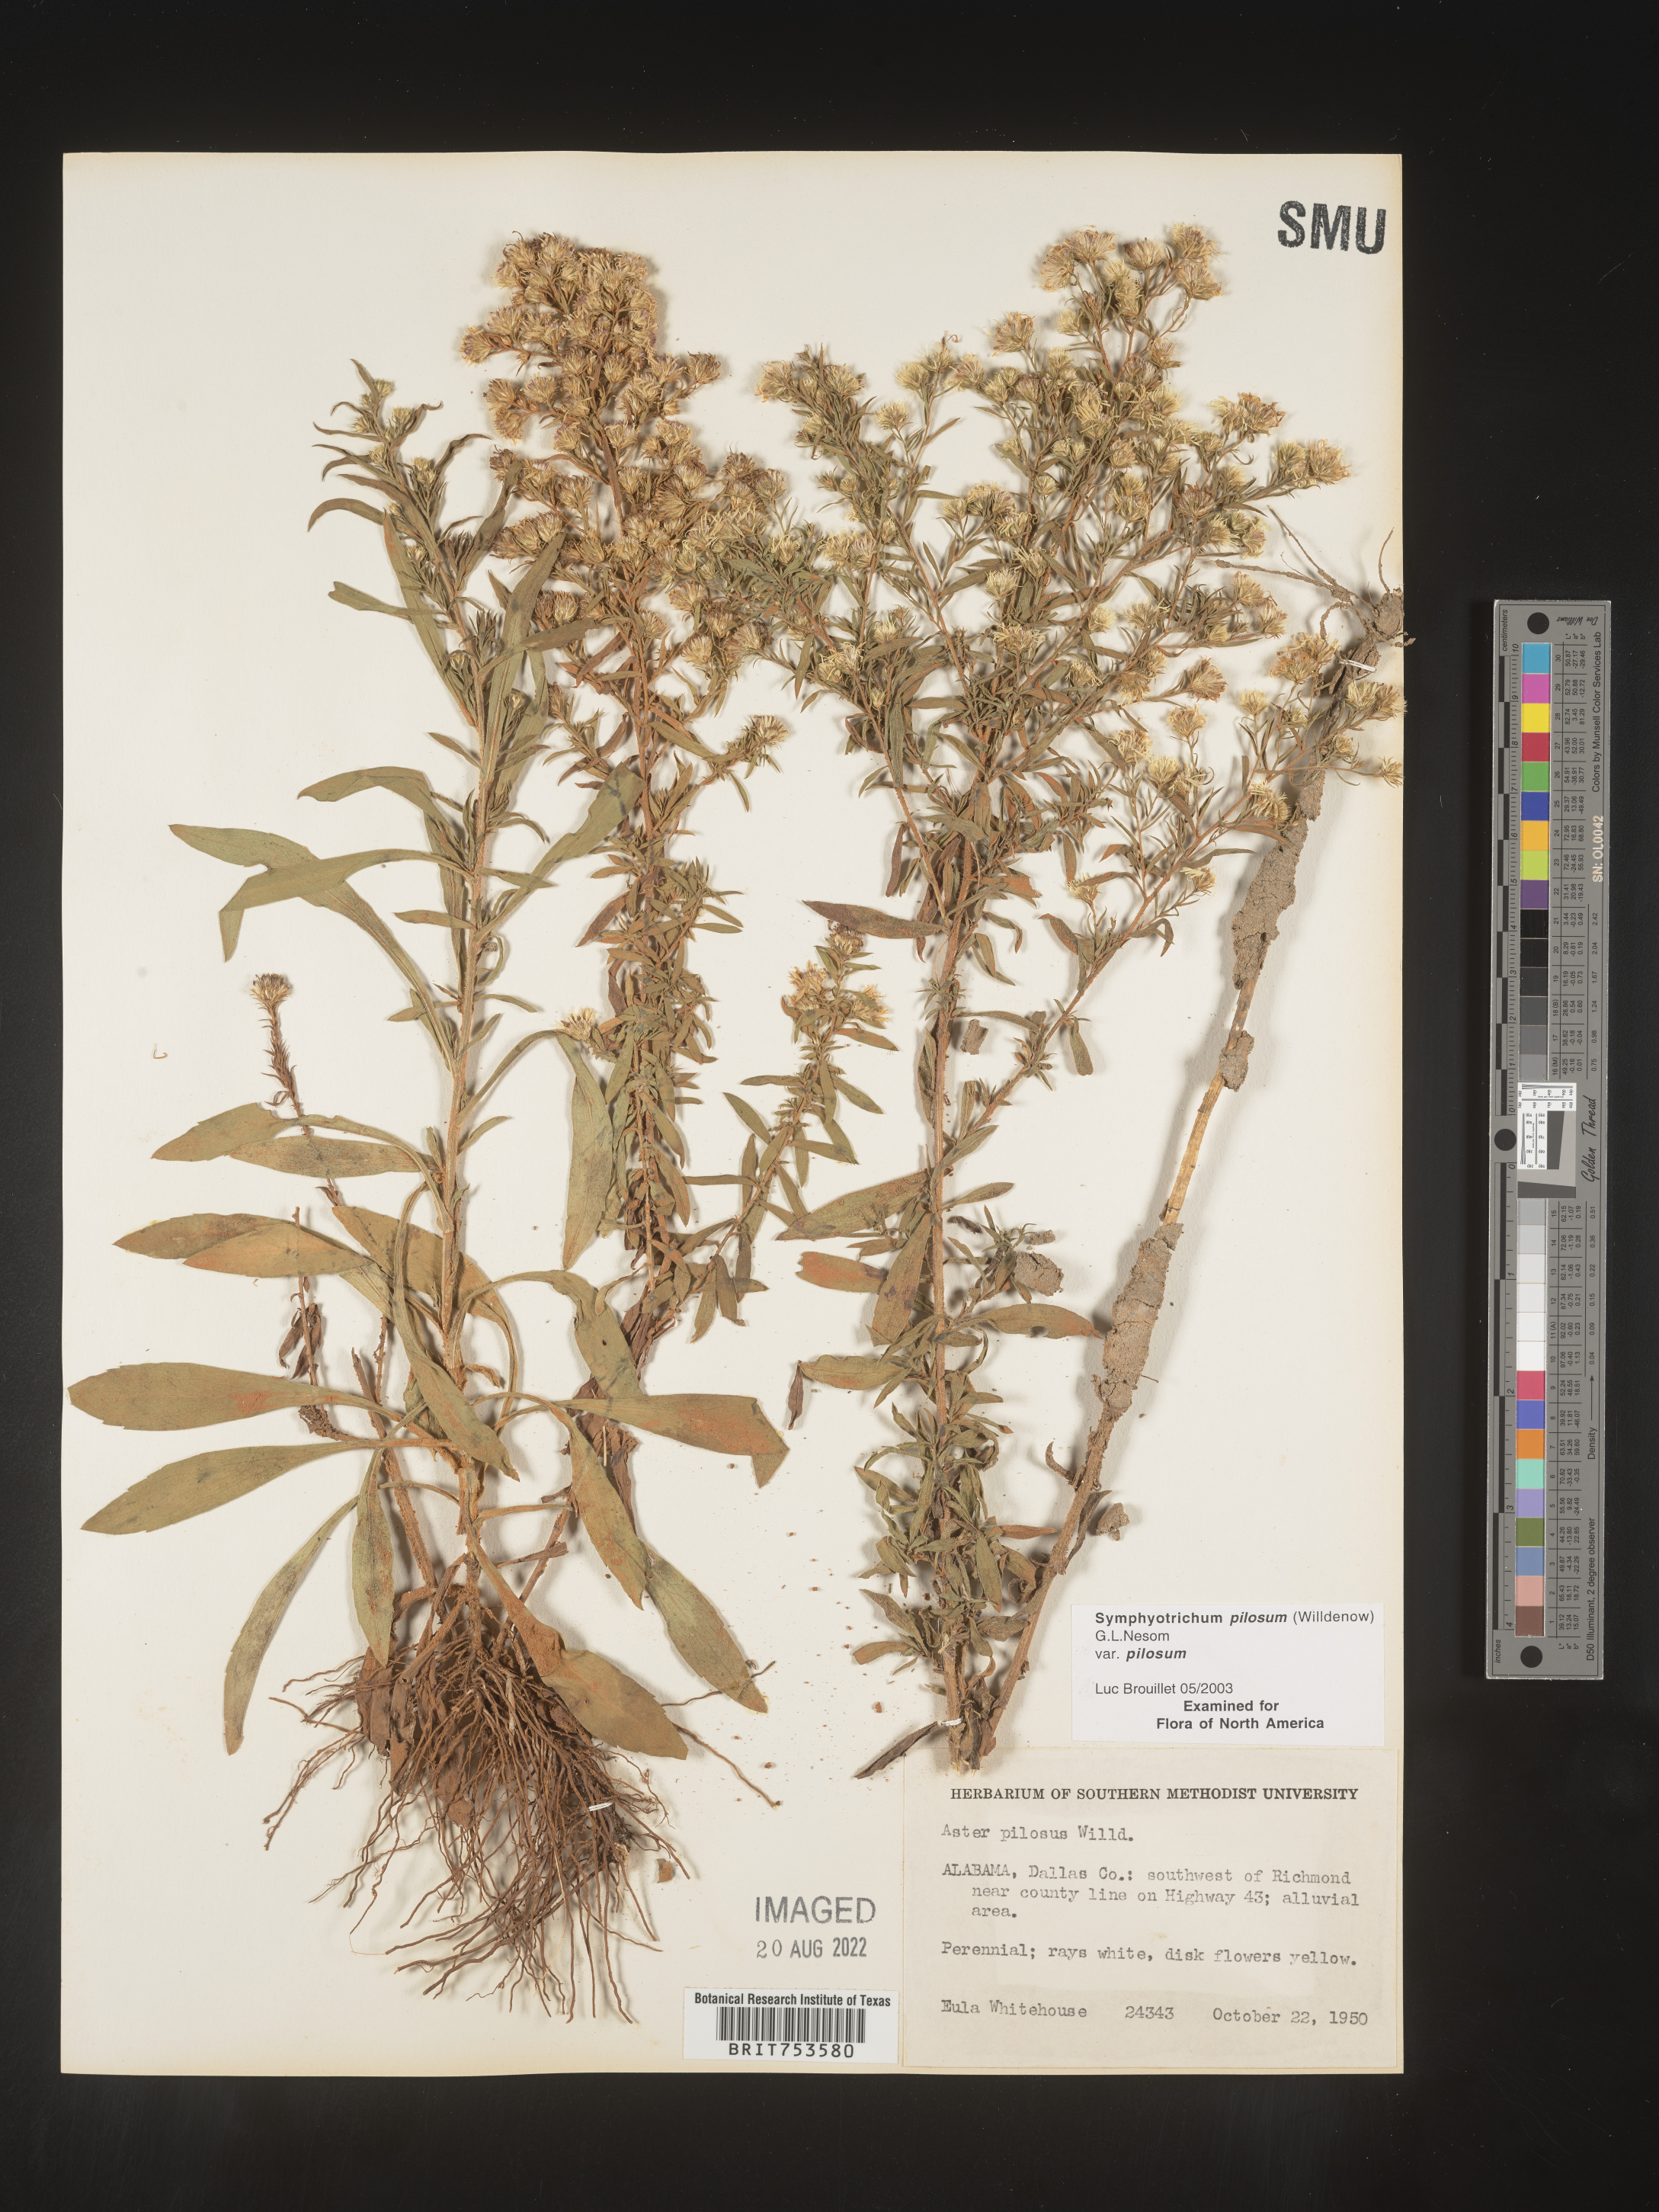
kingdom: Plantae
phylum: Tracheophyta
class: Magnoliopsida
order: Asterales
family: Asteraceae
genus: Symphyotrichum
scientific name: Symphyotrichum pilosum
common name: Awl aster
